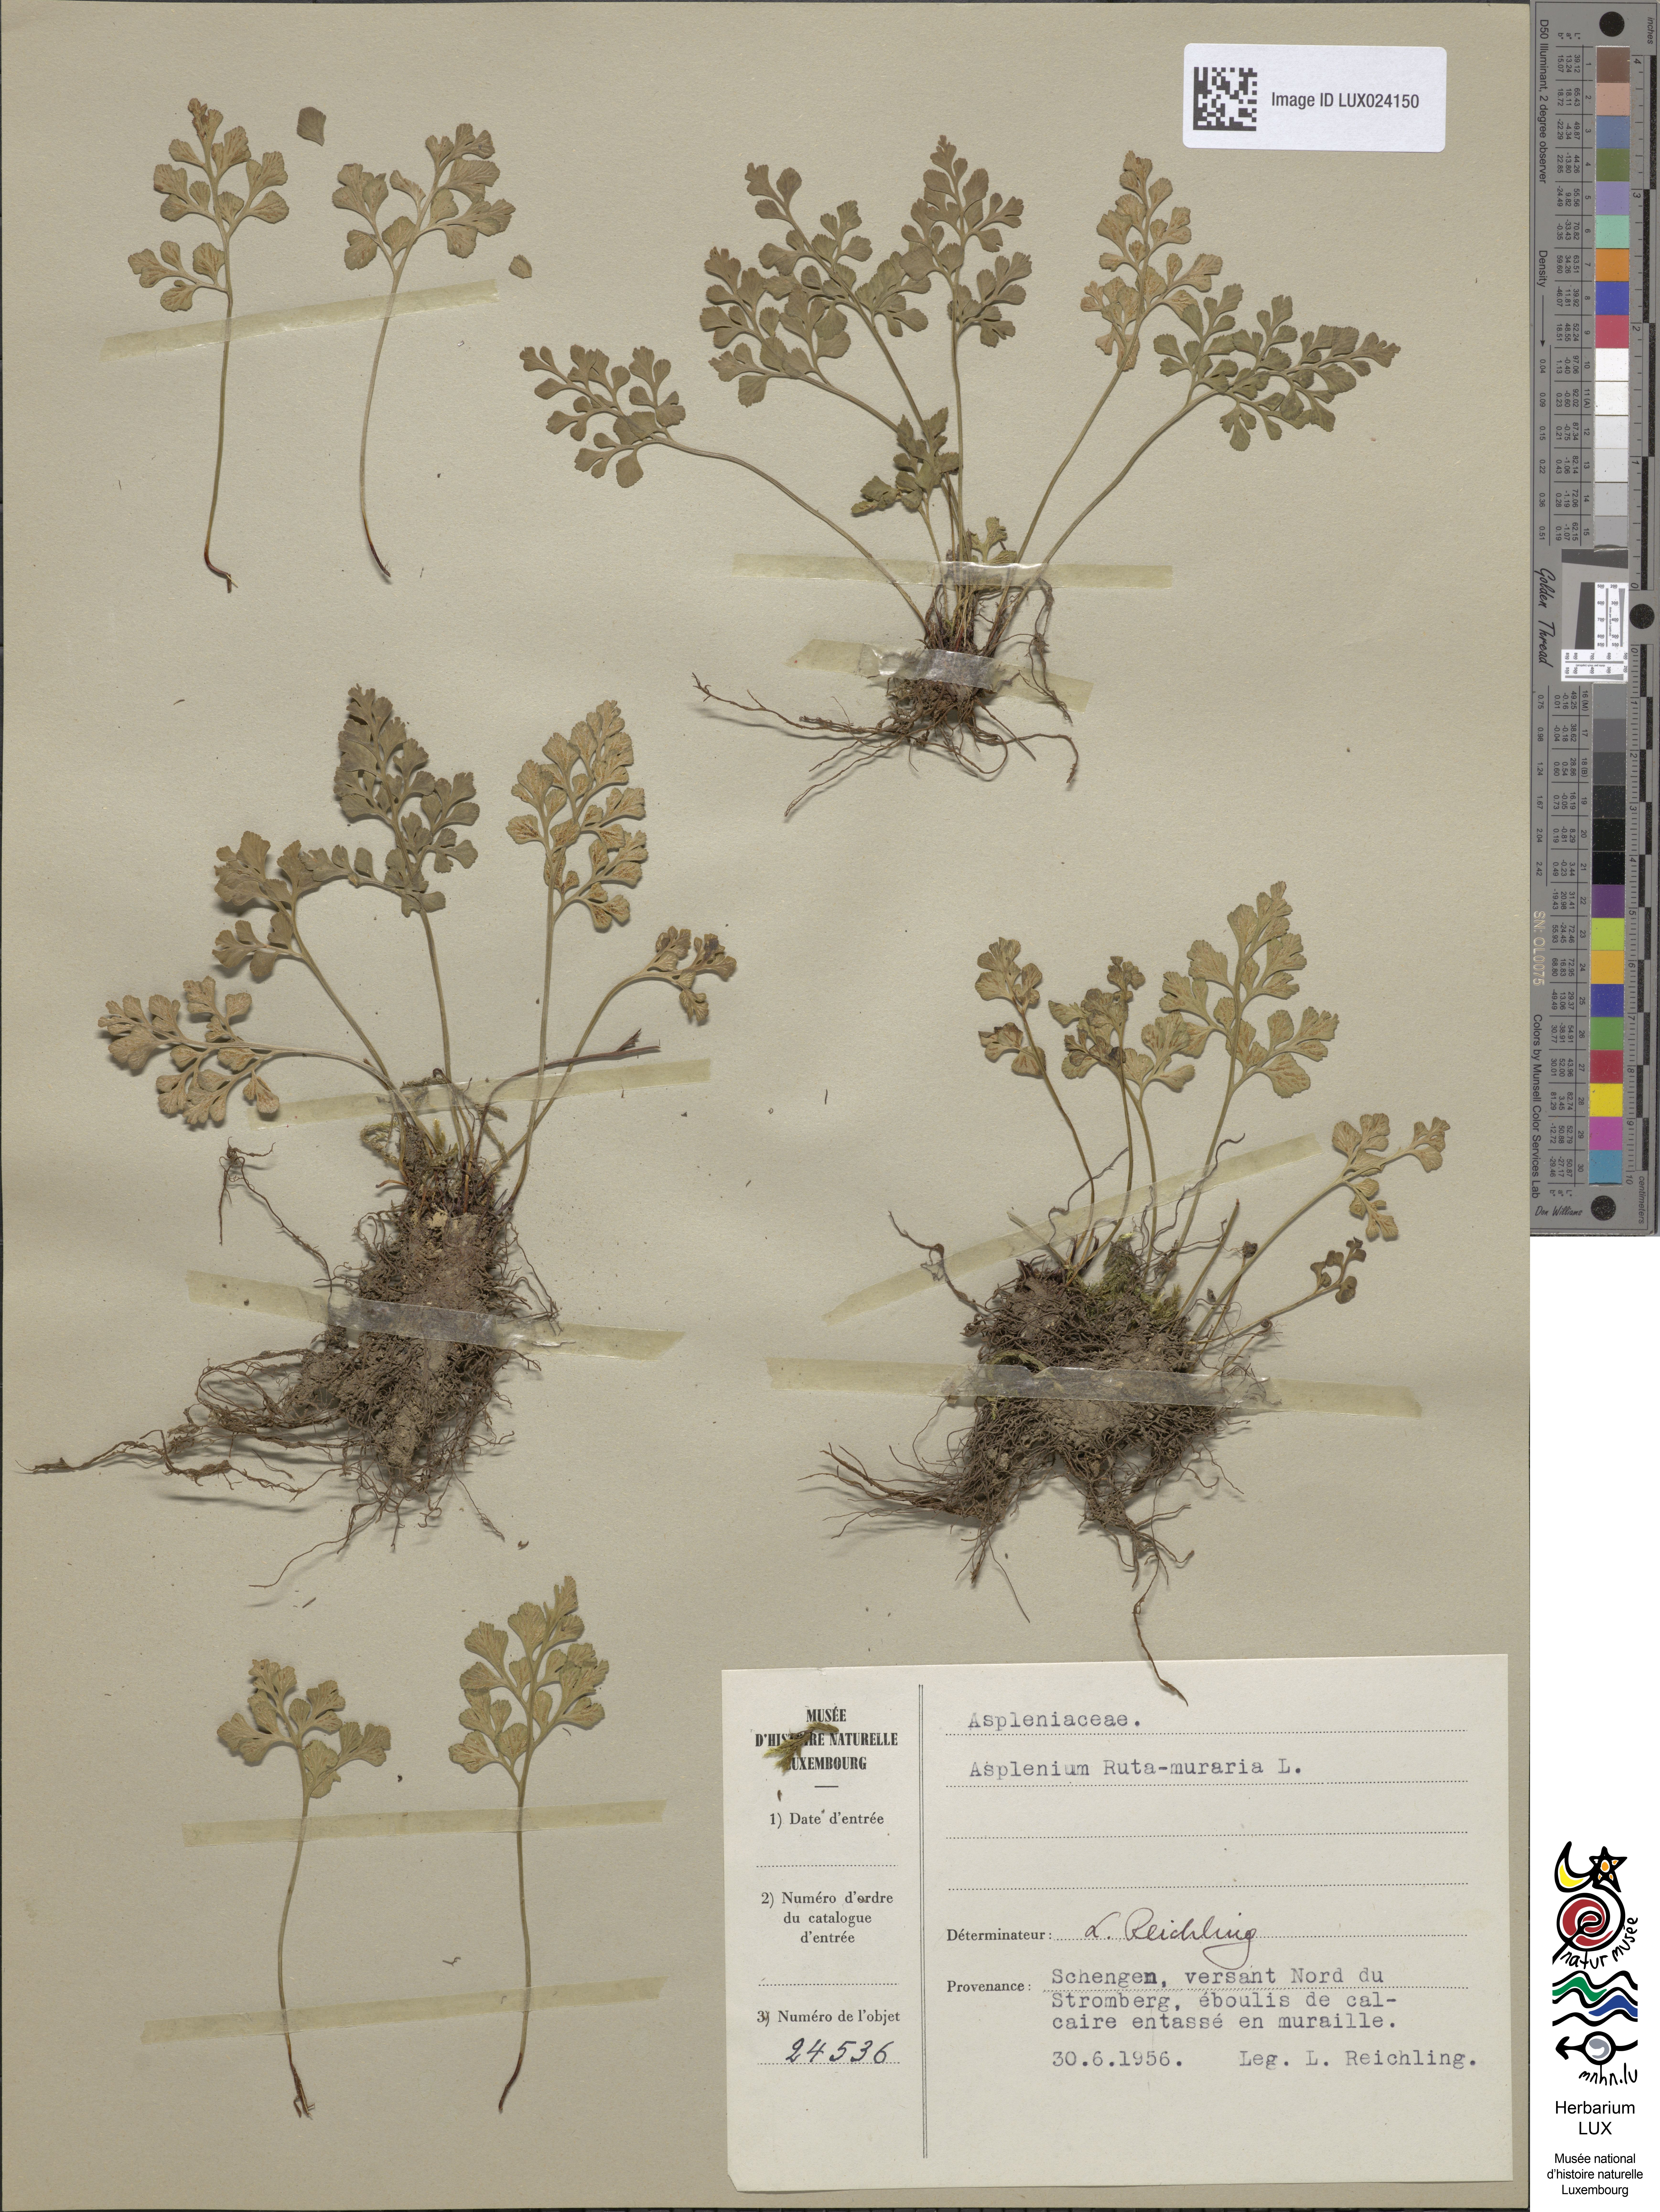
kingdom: Plantae
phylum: Tracheophyta
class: Polypodiopsida
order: Polypodiales
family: Aspleniaceae
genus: Asplenium
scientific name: Asplenium ruta-muraria
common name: Wall-rue
